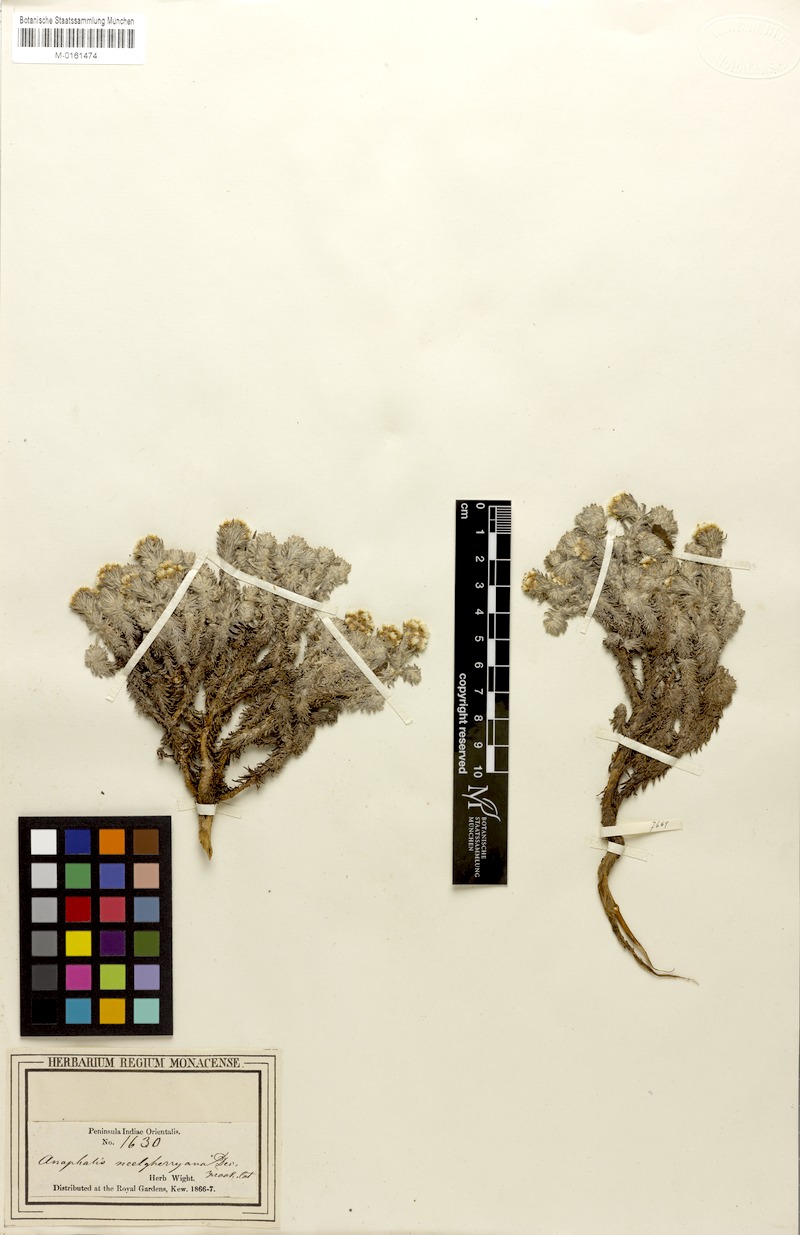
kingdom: Plantae
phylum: Tracheophyta
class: Magnoliopsida
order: Asterales
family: Asteraceae
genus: Anaphalis
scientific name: Anaphalis neelgerryana
